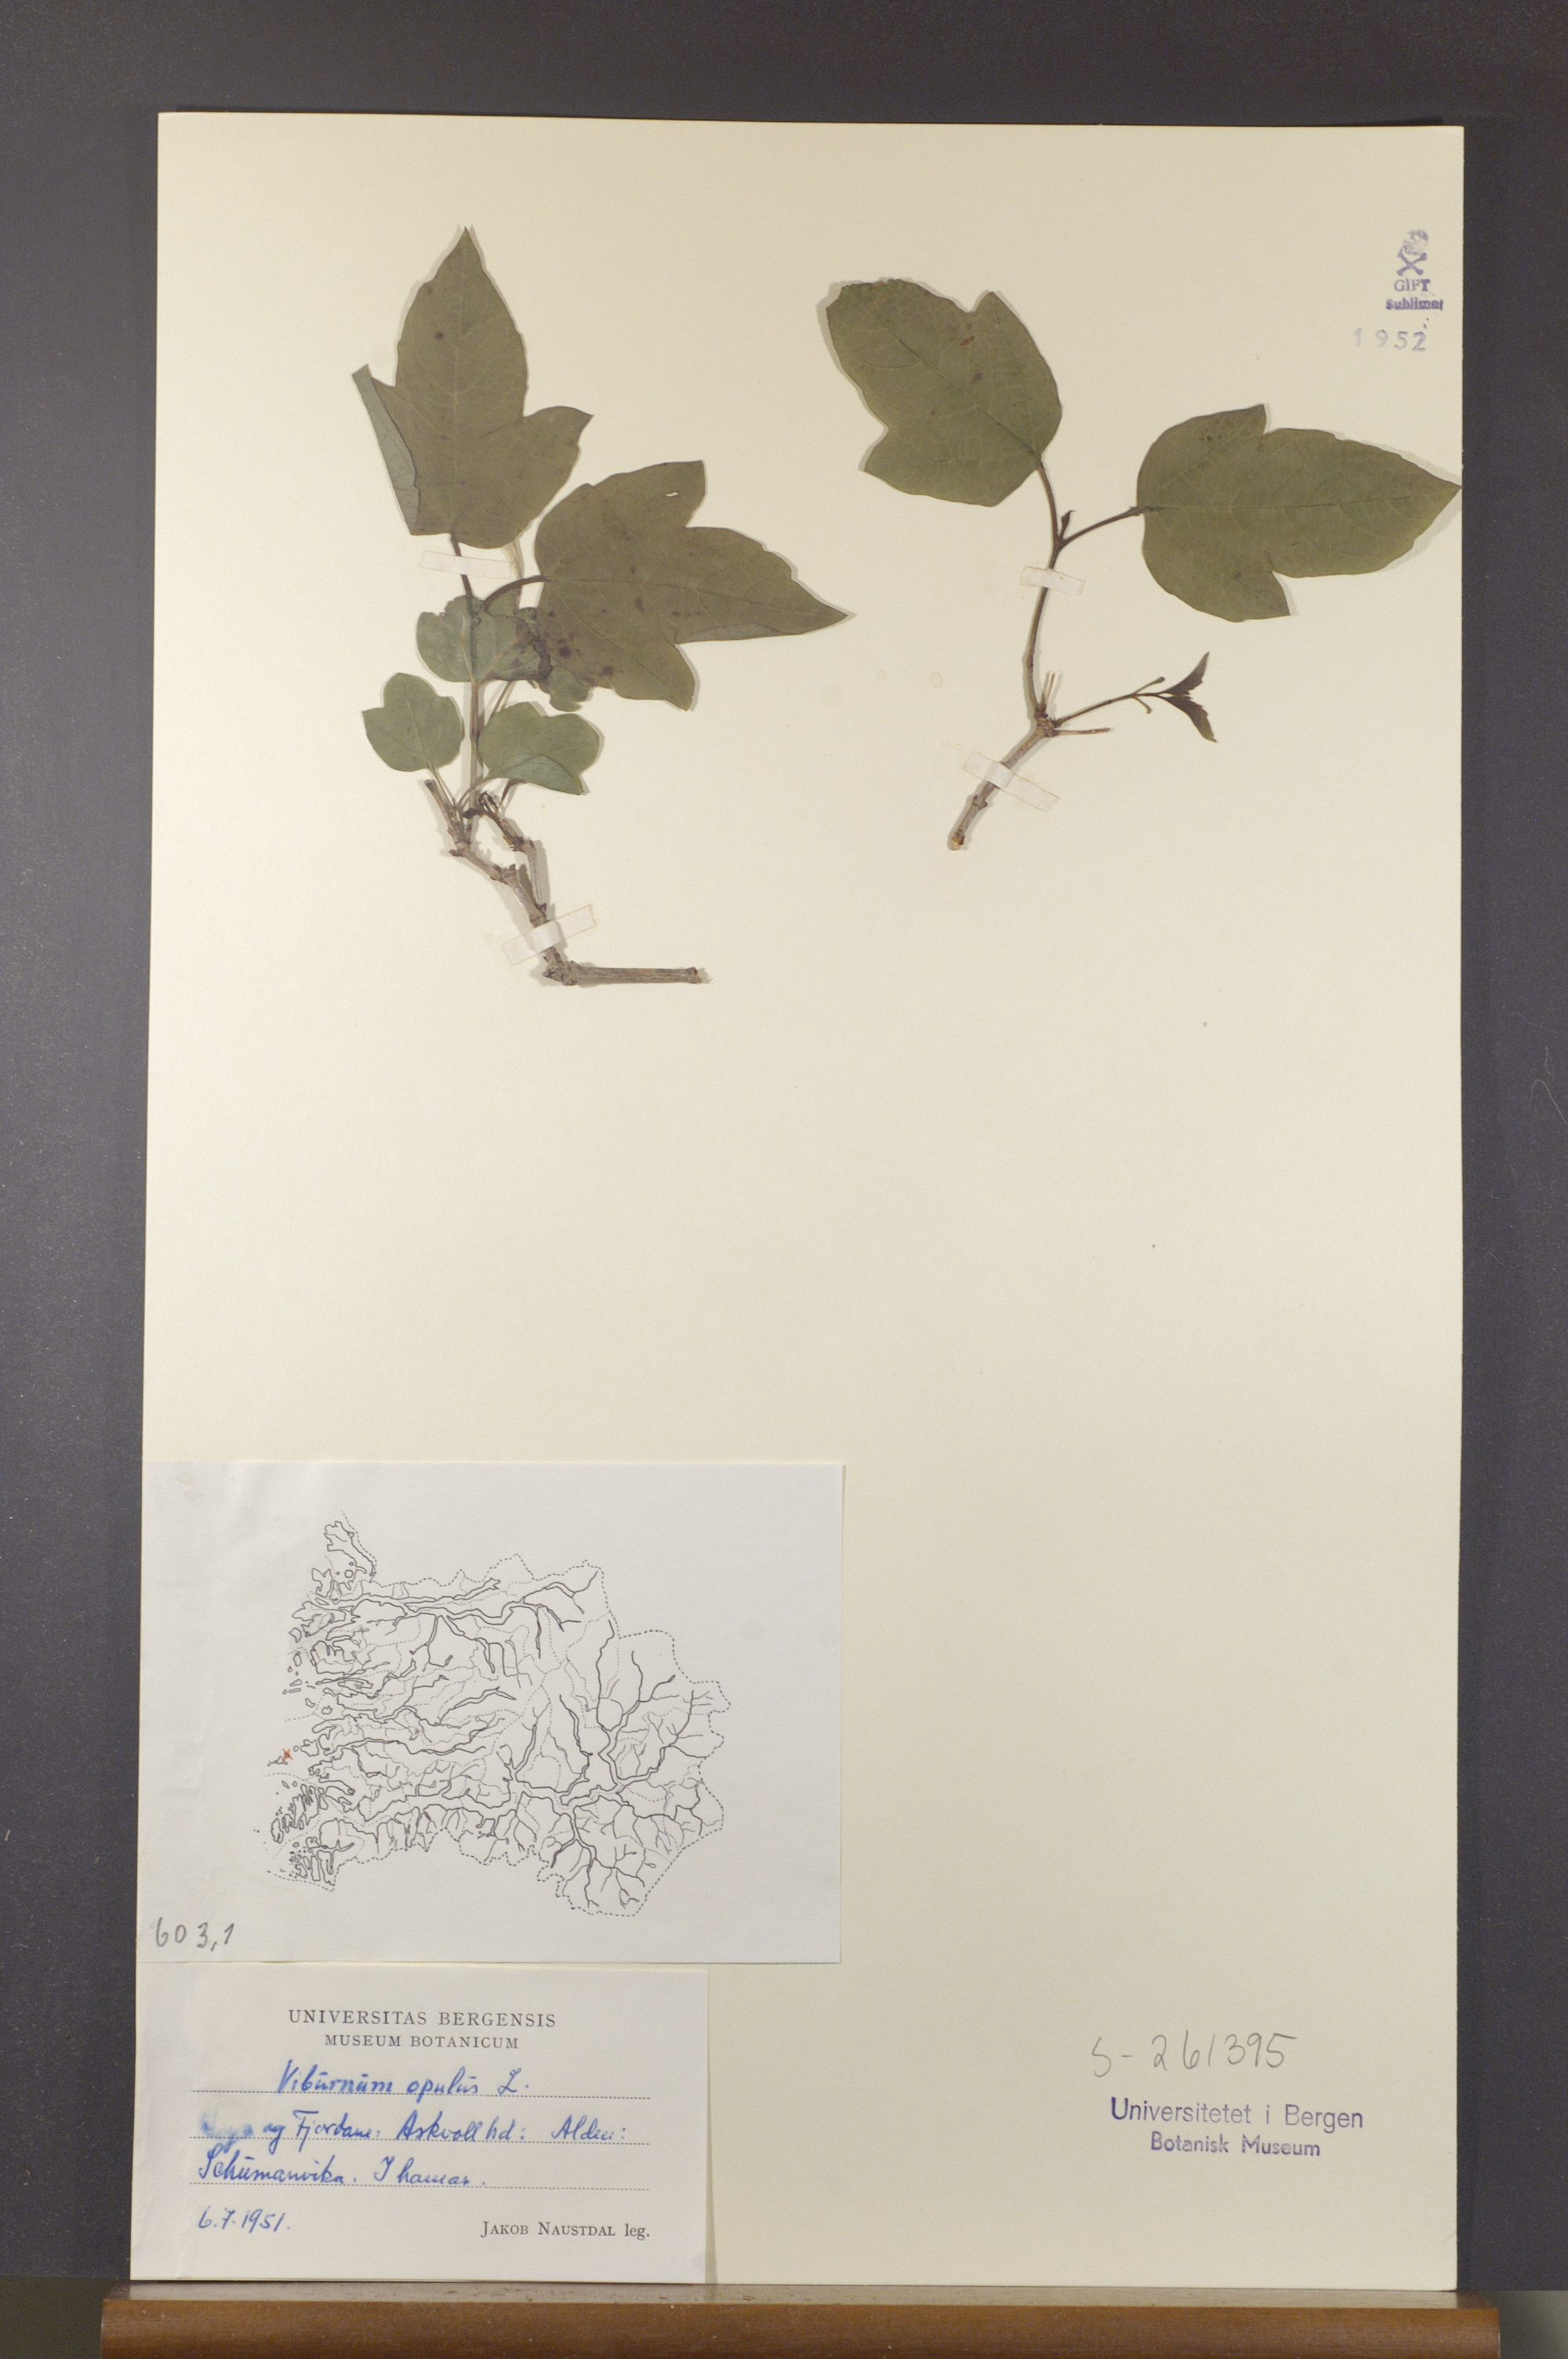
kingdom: Plantae
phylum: Tracheophyta
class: Magnoliopsida
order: Dipsacales
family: Viburnaceae
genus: Viburnum
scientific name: Viburnum opulus
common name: Guelder-rose
